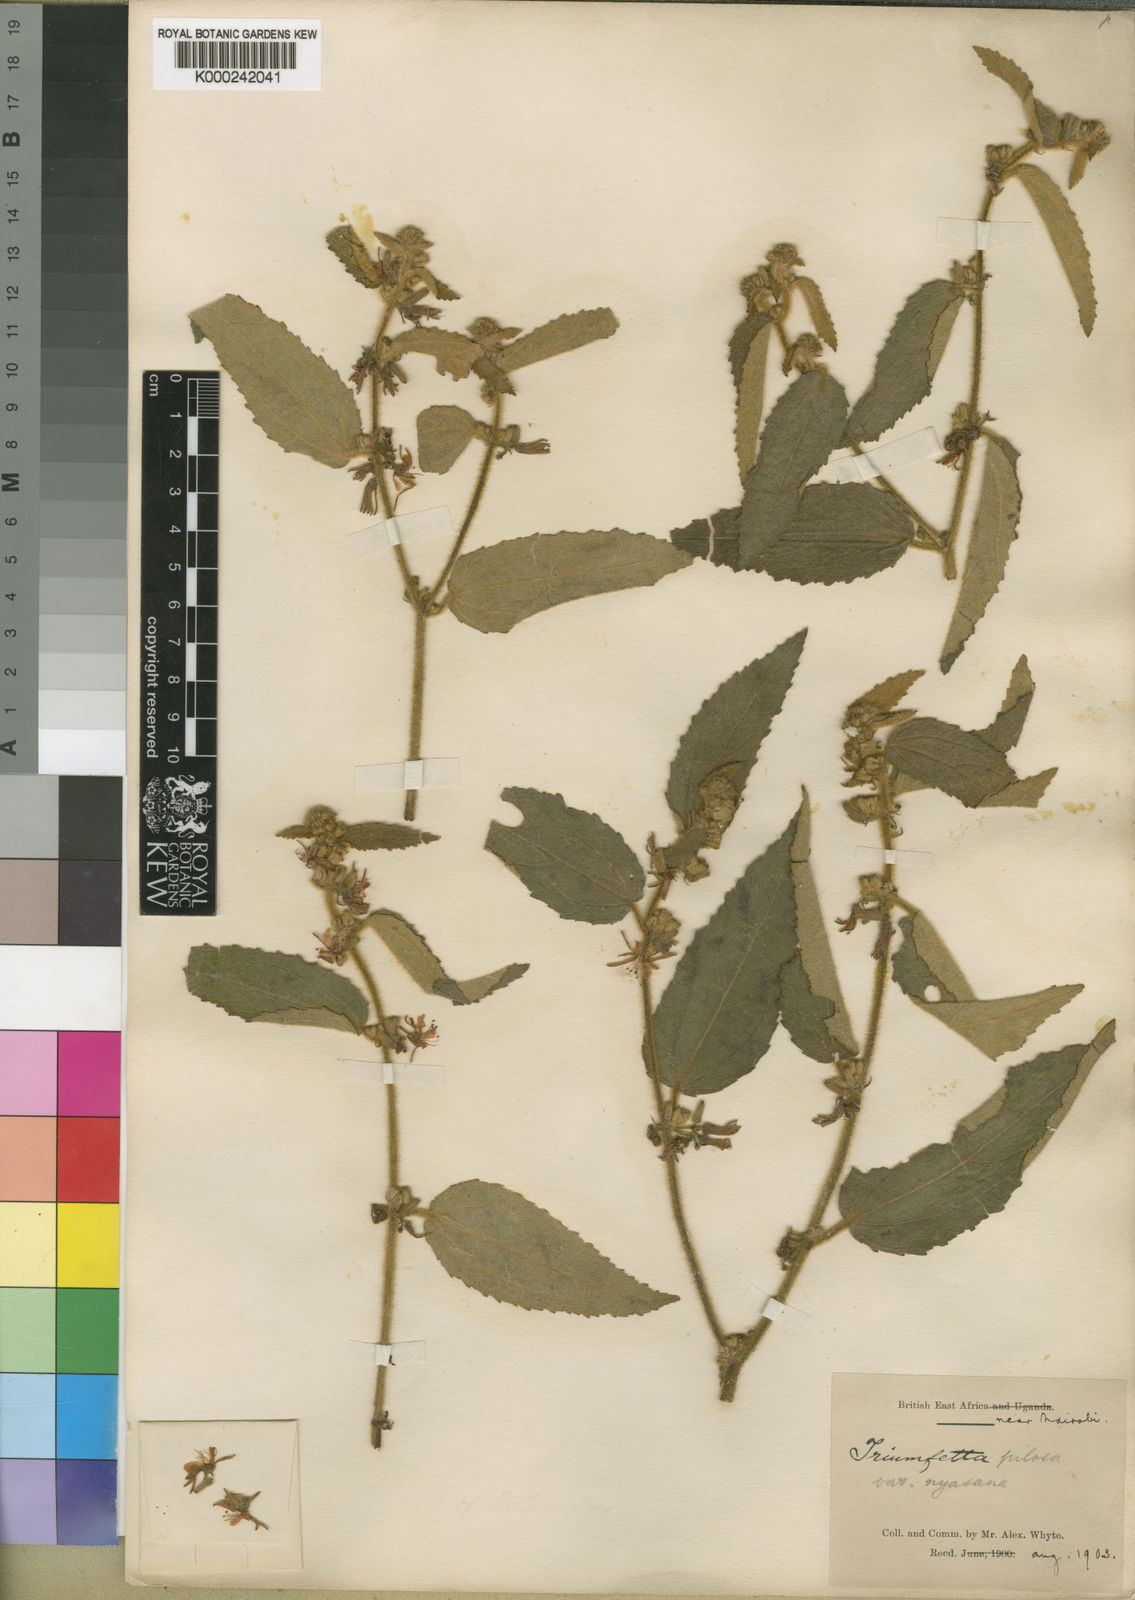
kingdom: Plantae
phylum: Tracheophyta
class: Magnoliopsida
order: Malvales
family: Malvaceae
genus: Triumfetta
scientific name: Triumfetta pilosa
